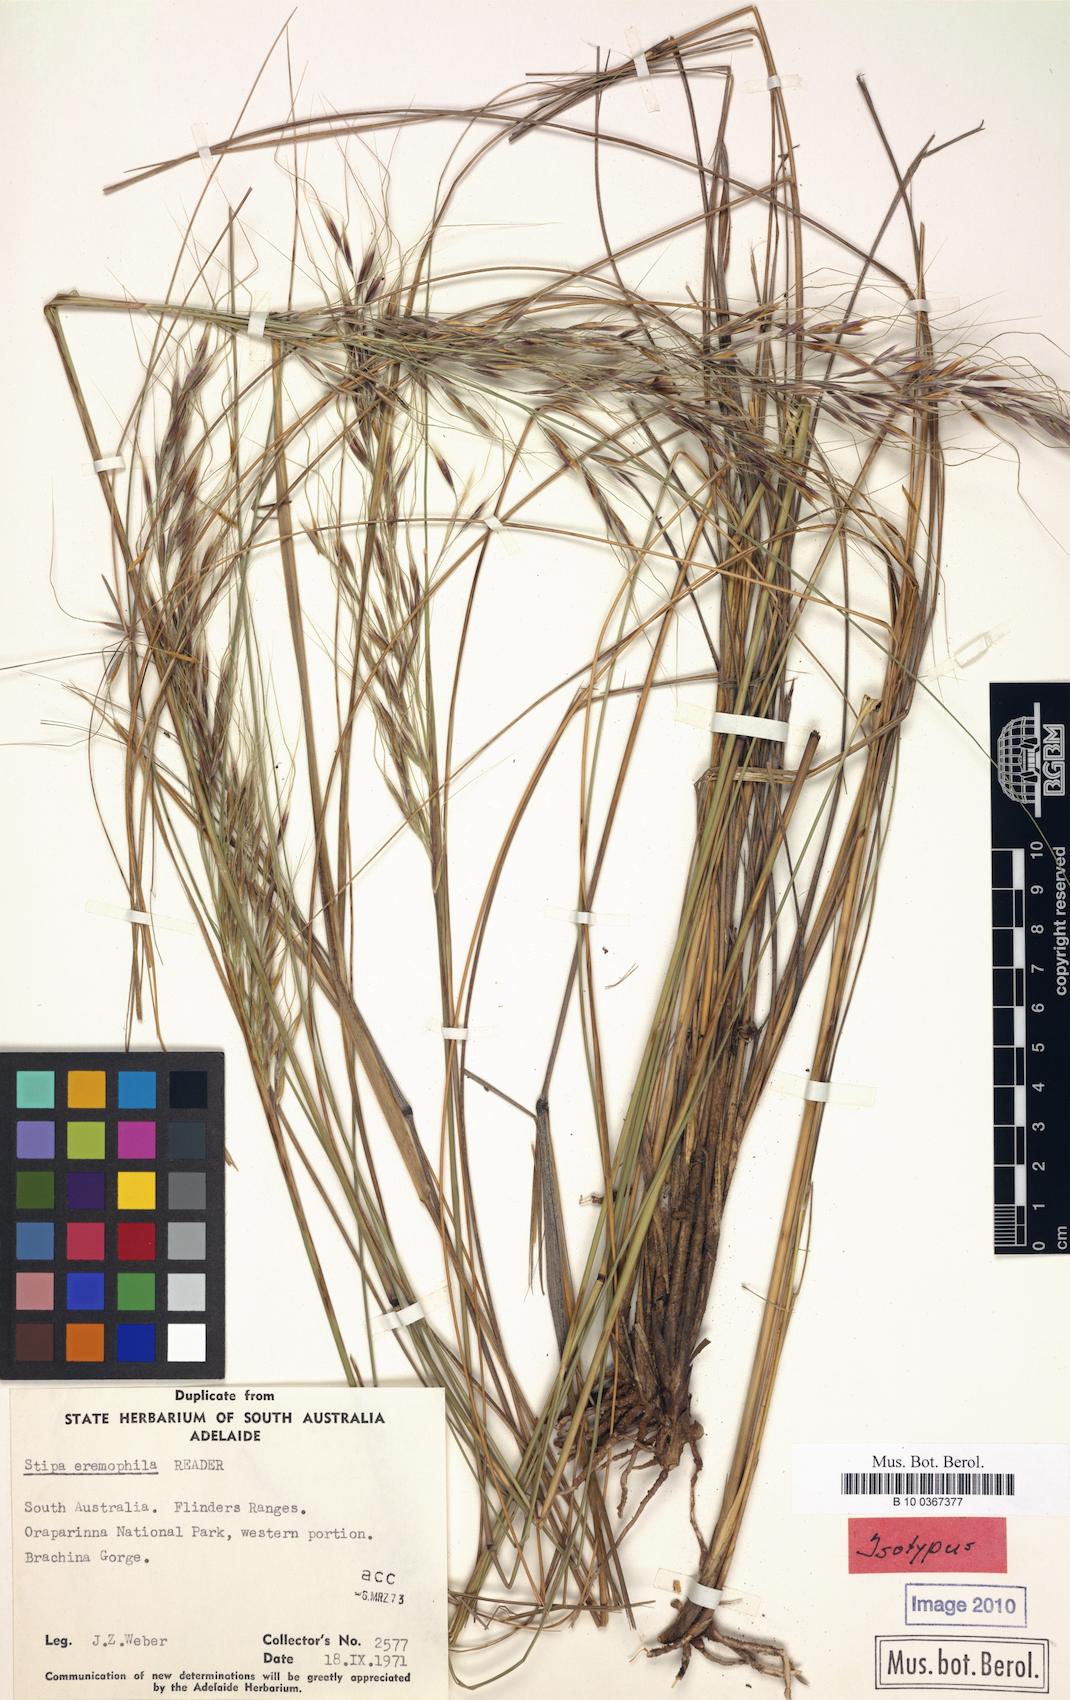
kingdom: Plantae
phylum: Tracheophyta
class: Liliopsida
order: Poales
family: Poaceae
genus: Austrostipa
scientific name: Austrostipa petraea
